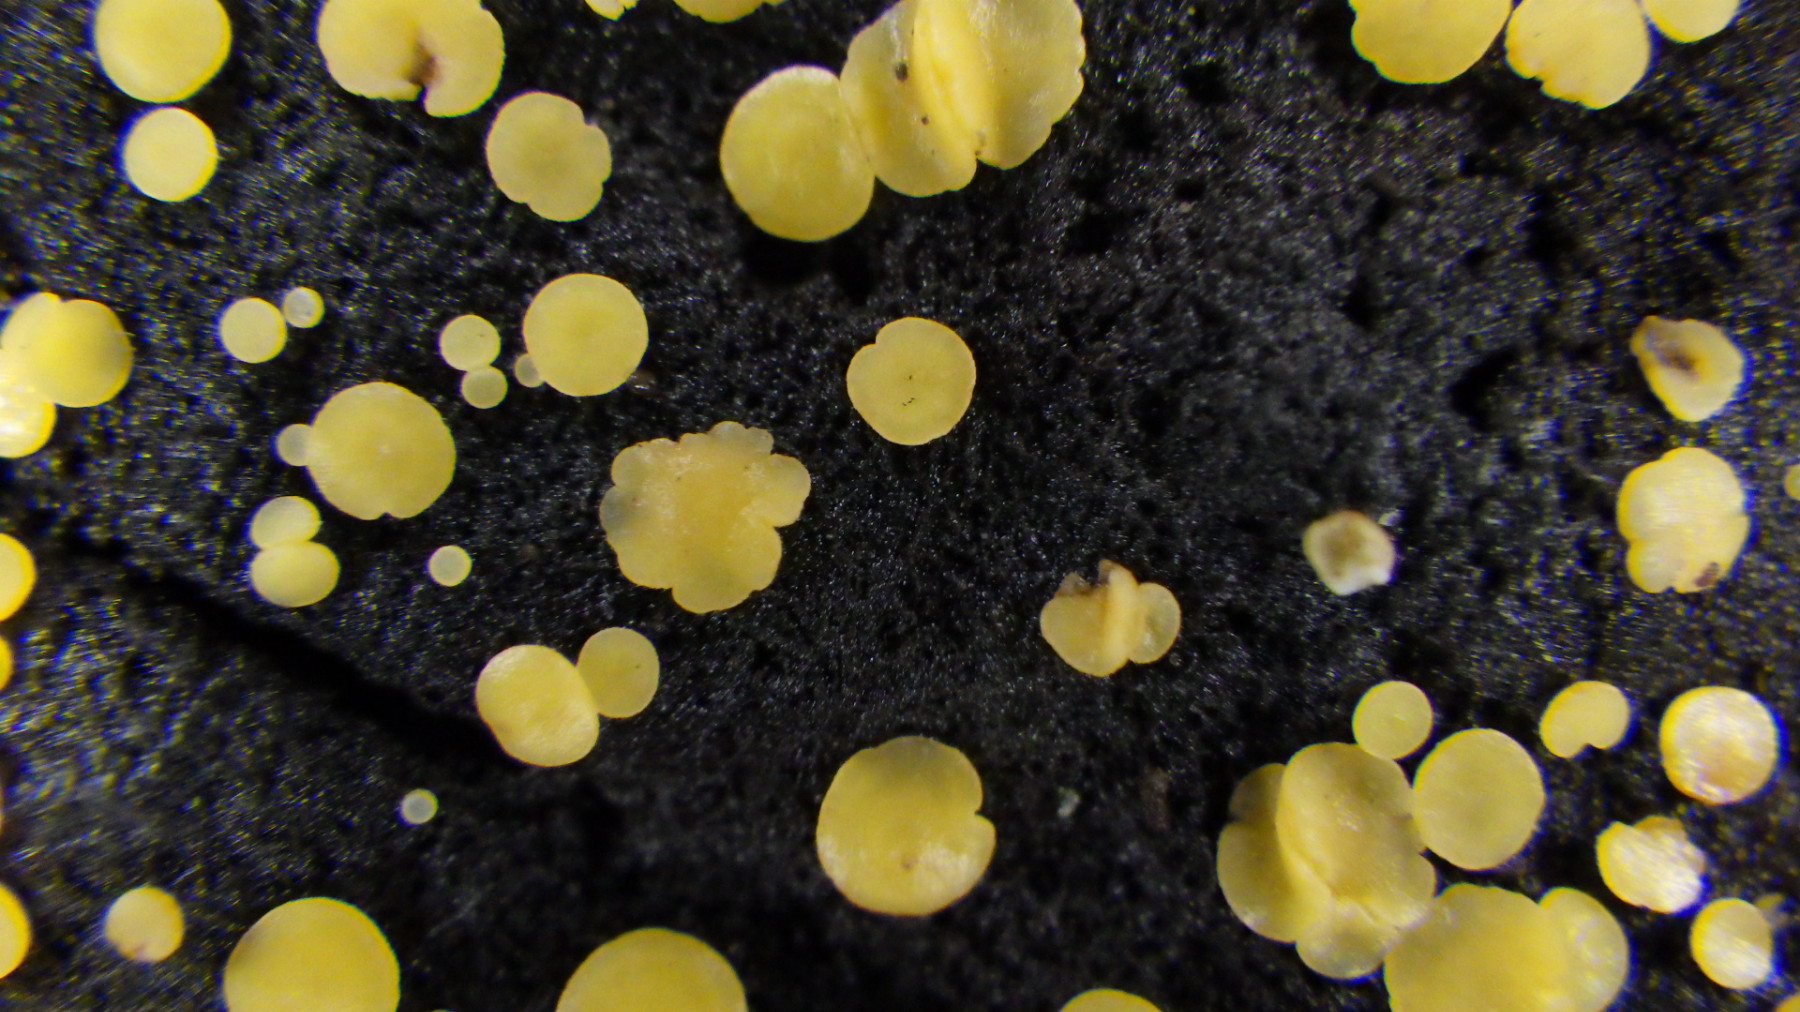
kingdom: Fungi
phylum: Ascomycota
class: Leotiomycetes
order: Helotiales
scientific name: Helotiales
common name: stilkskiveordenen
